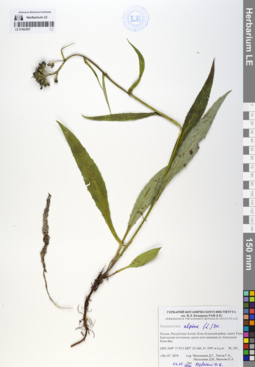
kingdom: Plantae
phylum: Tracheophyta
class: Magnoliopsida
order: Asterales
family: Asteraceae
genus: Saussurea
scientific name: Saussurea alpina
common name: Alpine saw-wort
